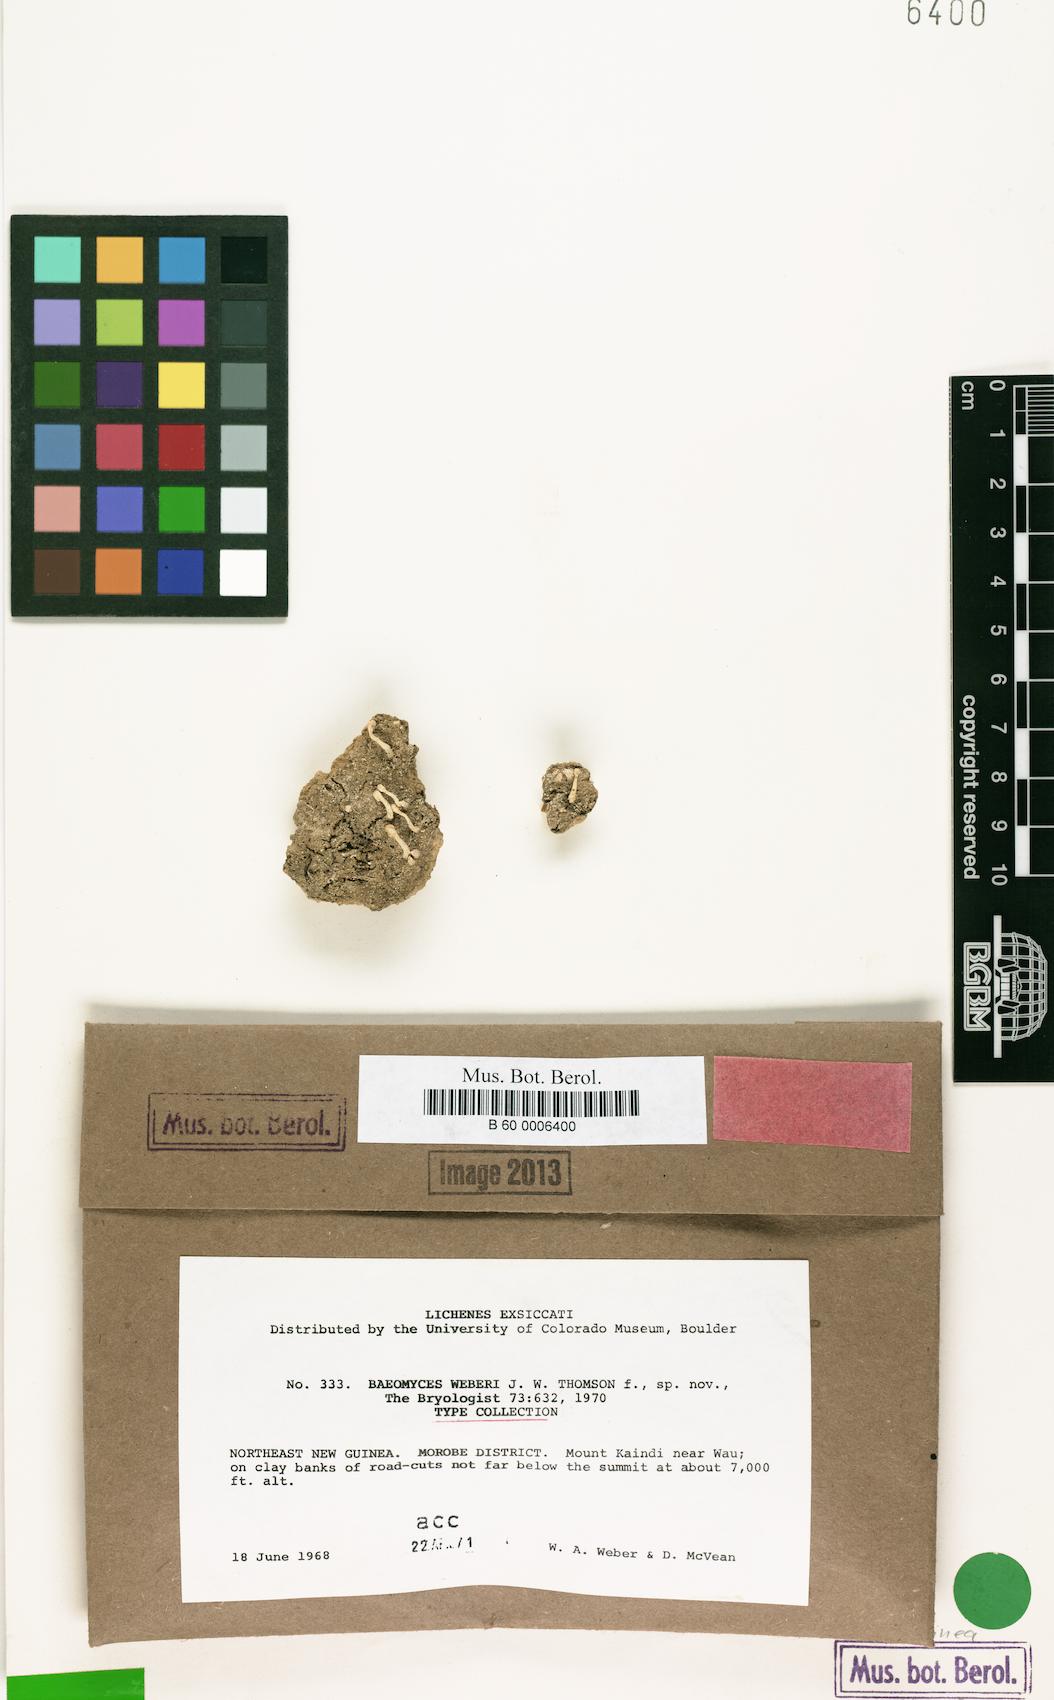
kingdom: Fungi
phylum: Ascomycota
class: Lecanoromycetes
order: Pertusariales
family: Icmadophilaceae
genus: Dibaeis
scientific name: Dibaeis weberi
